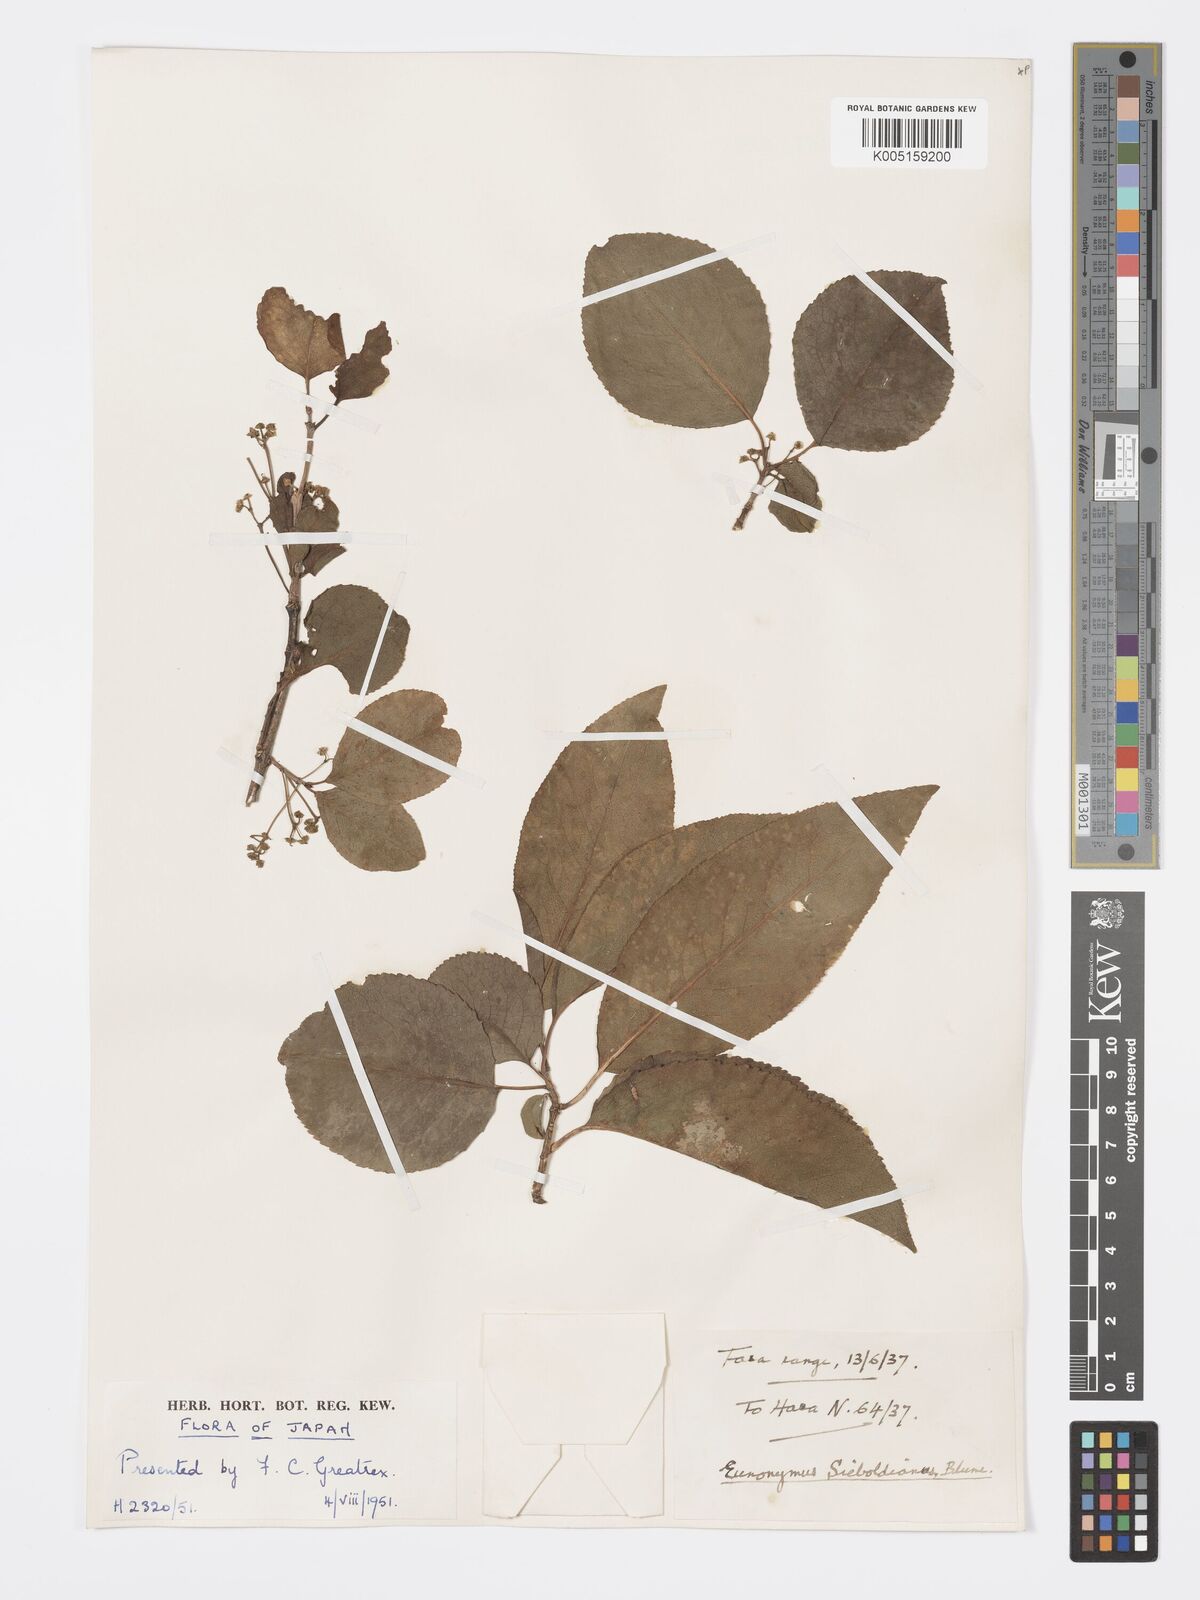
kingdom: Plantae
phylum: Tracheophyta
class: Magnoliopsida
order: Celastrales
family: Celastraceae
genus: Euonymus
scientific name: Euonymus hamiltonianus
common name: Hamilton's spindletree
